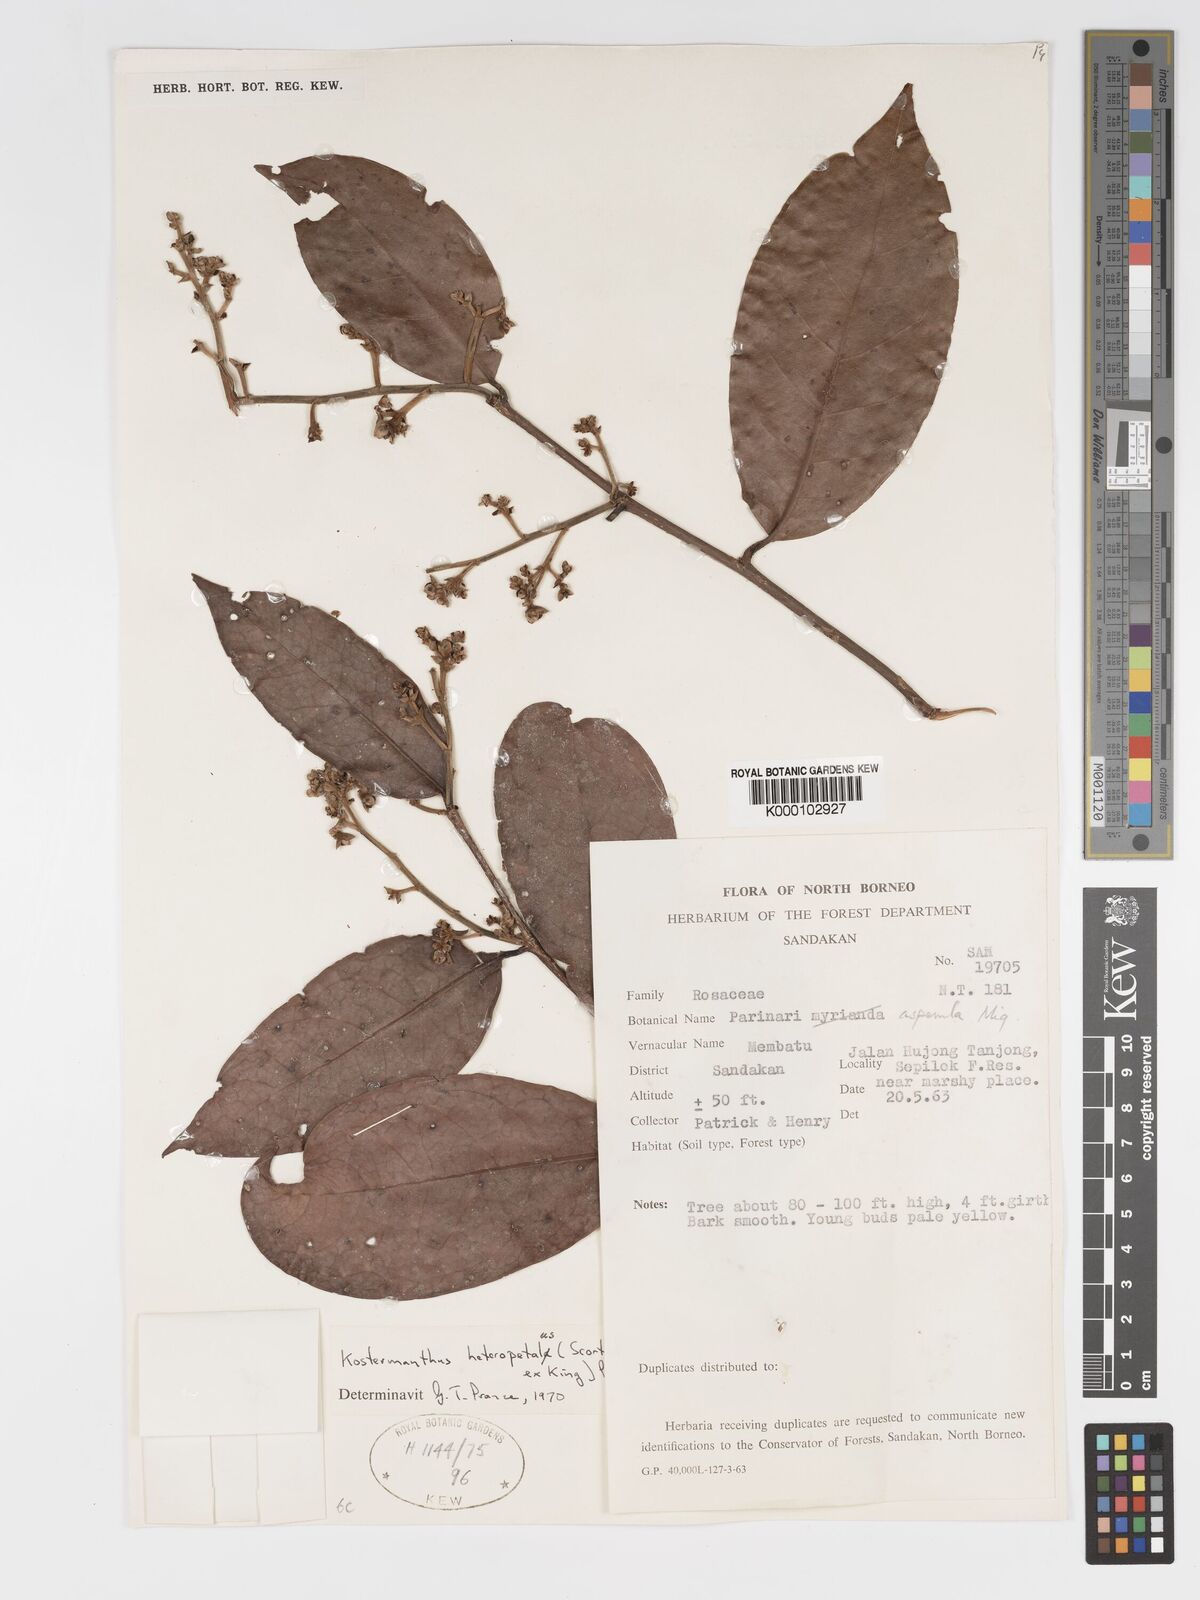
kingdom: Plantae
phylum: Tracheophyta
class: Magnoliopsida
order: Malpighiales
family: Chrysobalanaceae
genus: Kostermanthus
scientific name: Kostermanthus heteropetalus
